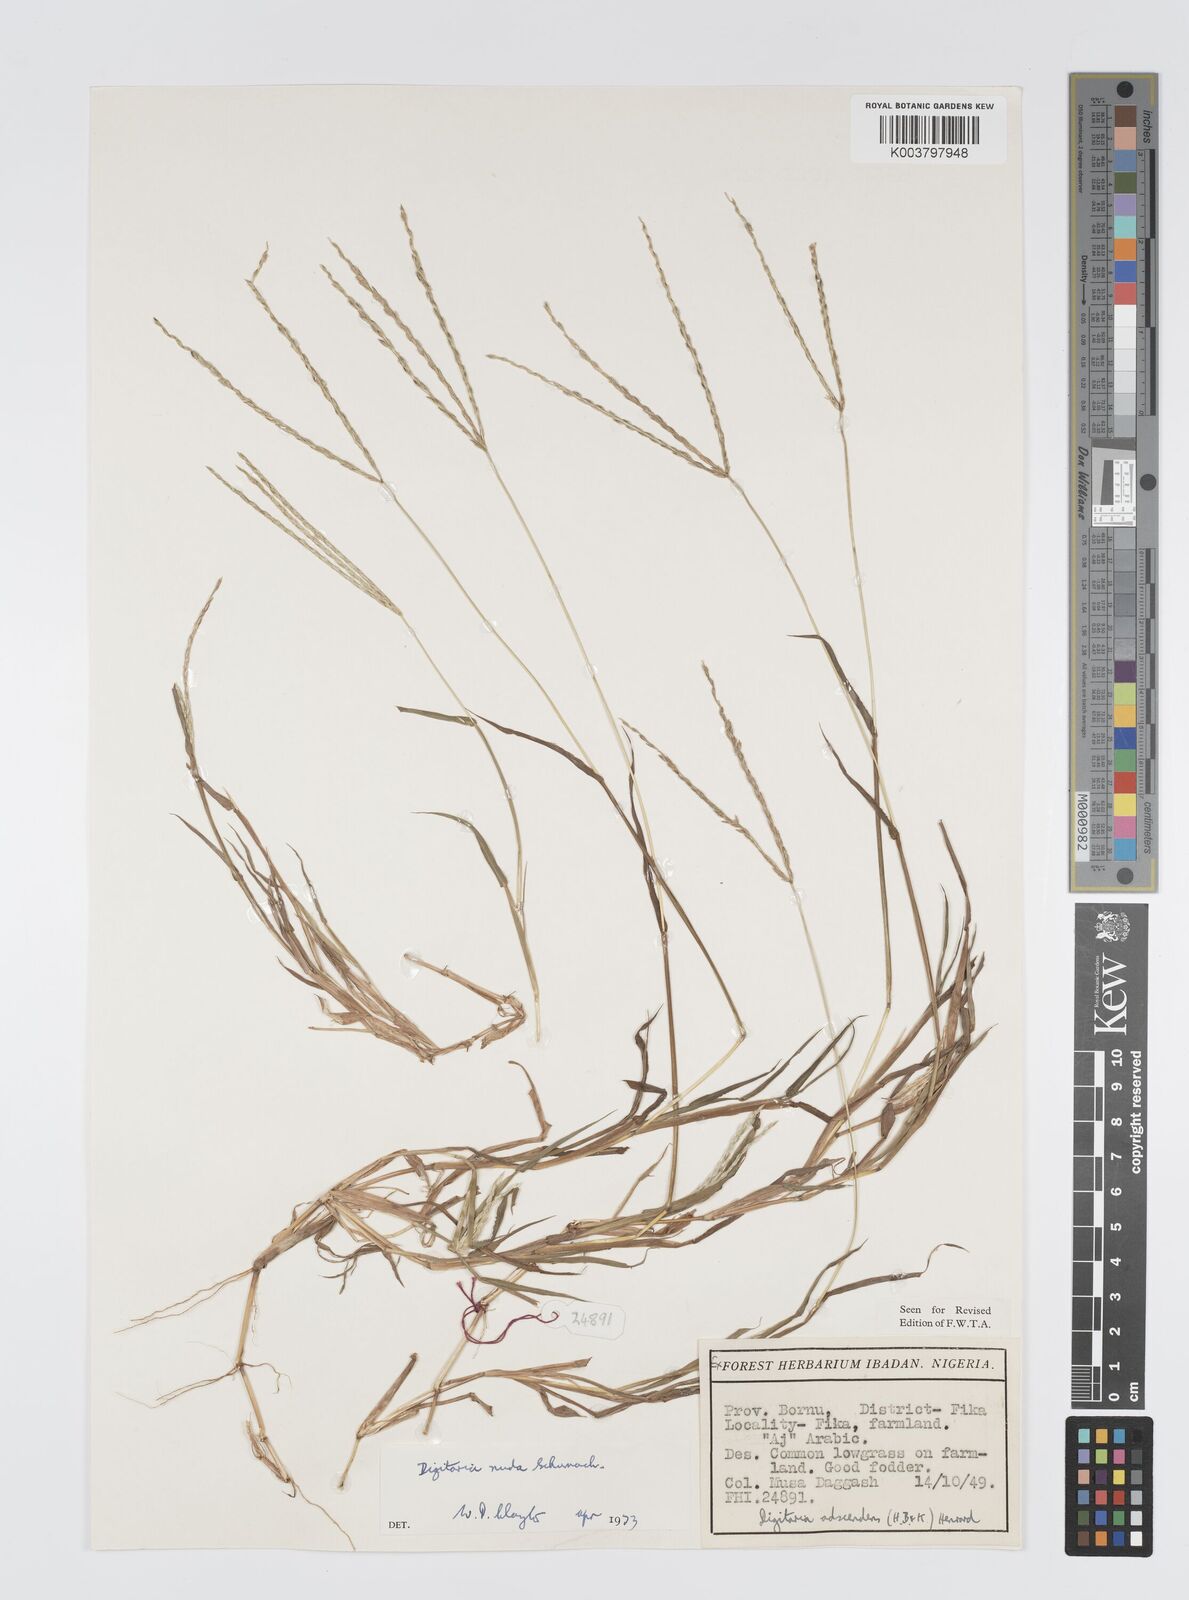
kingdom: Plantae
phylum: Tracheophyta
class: Liliopsida
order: Poales
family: Poaceae
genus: Digitaria
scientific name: Digitaria nuda
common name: Naked crabgrass
